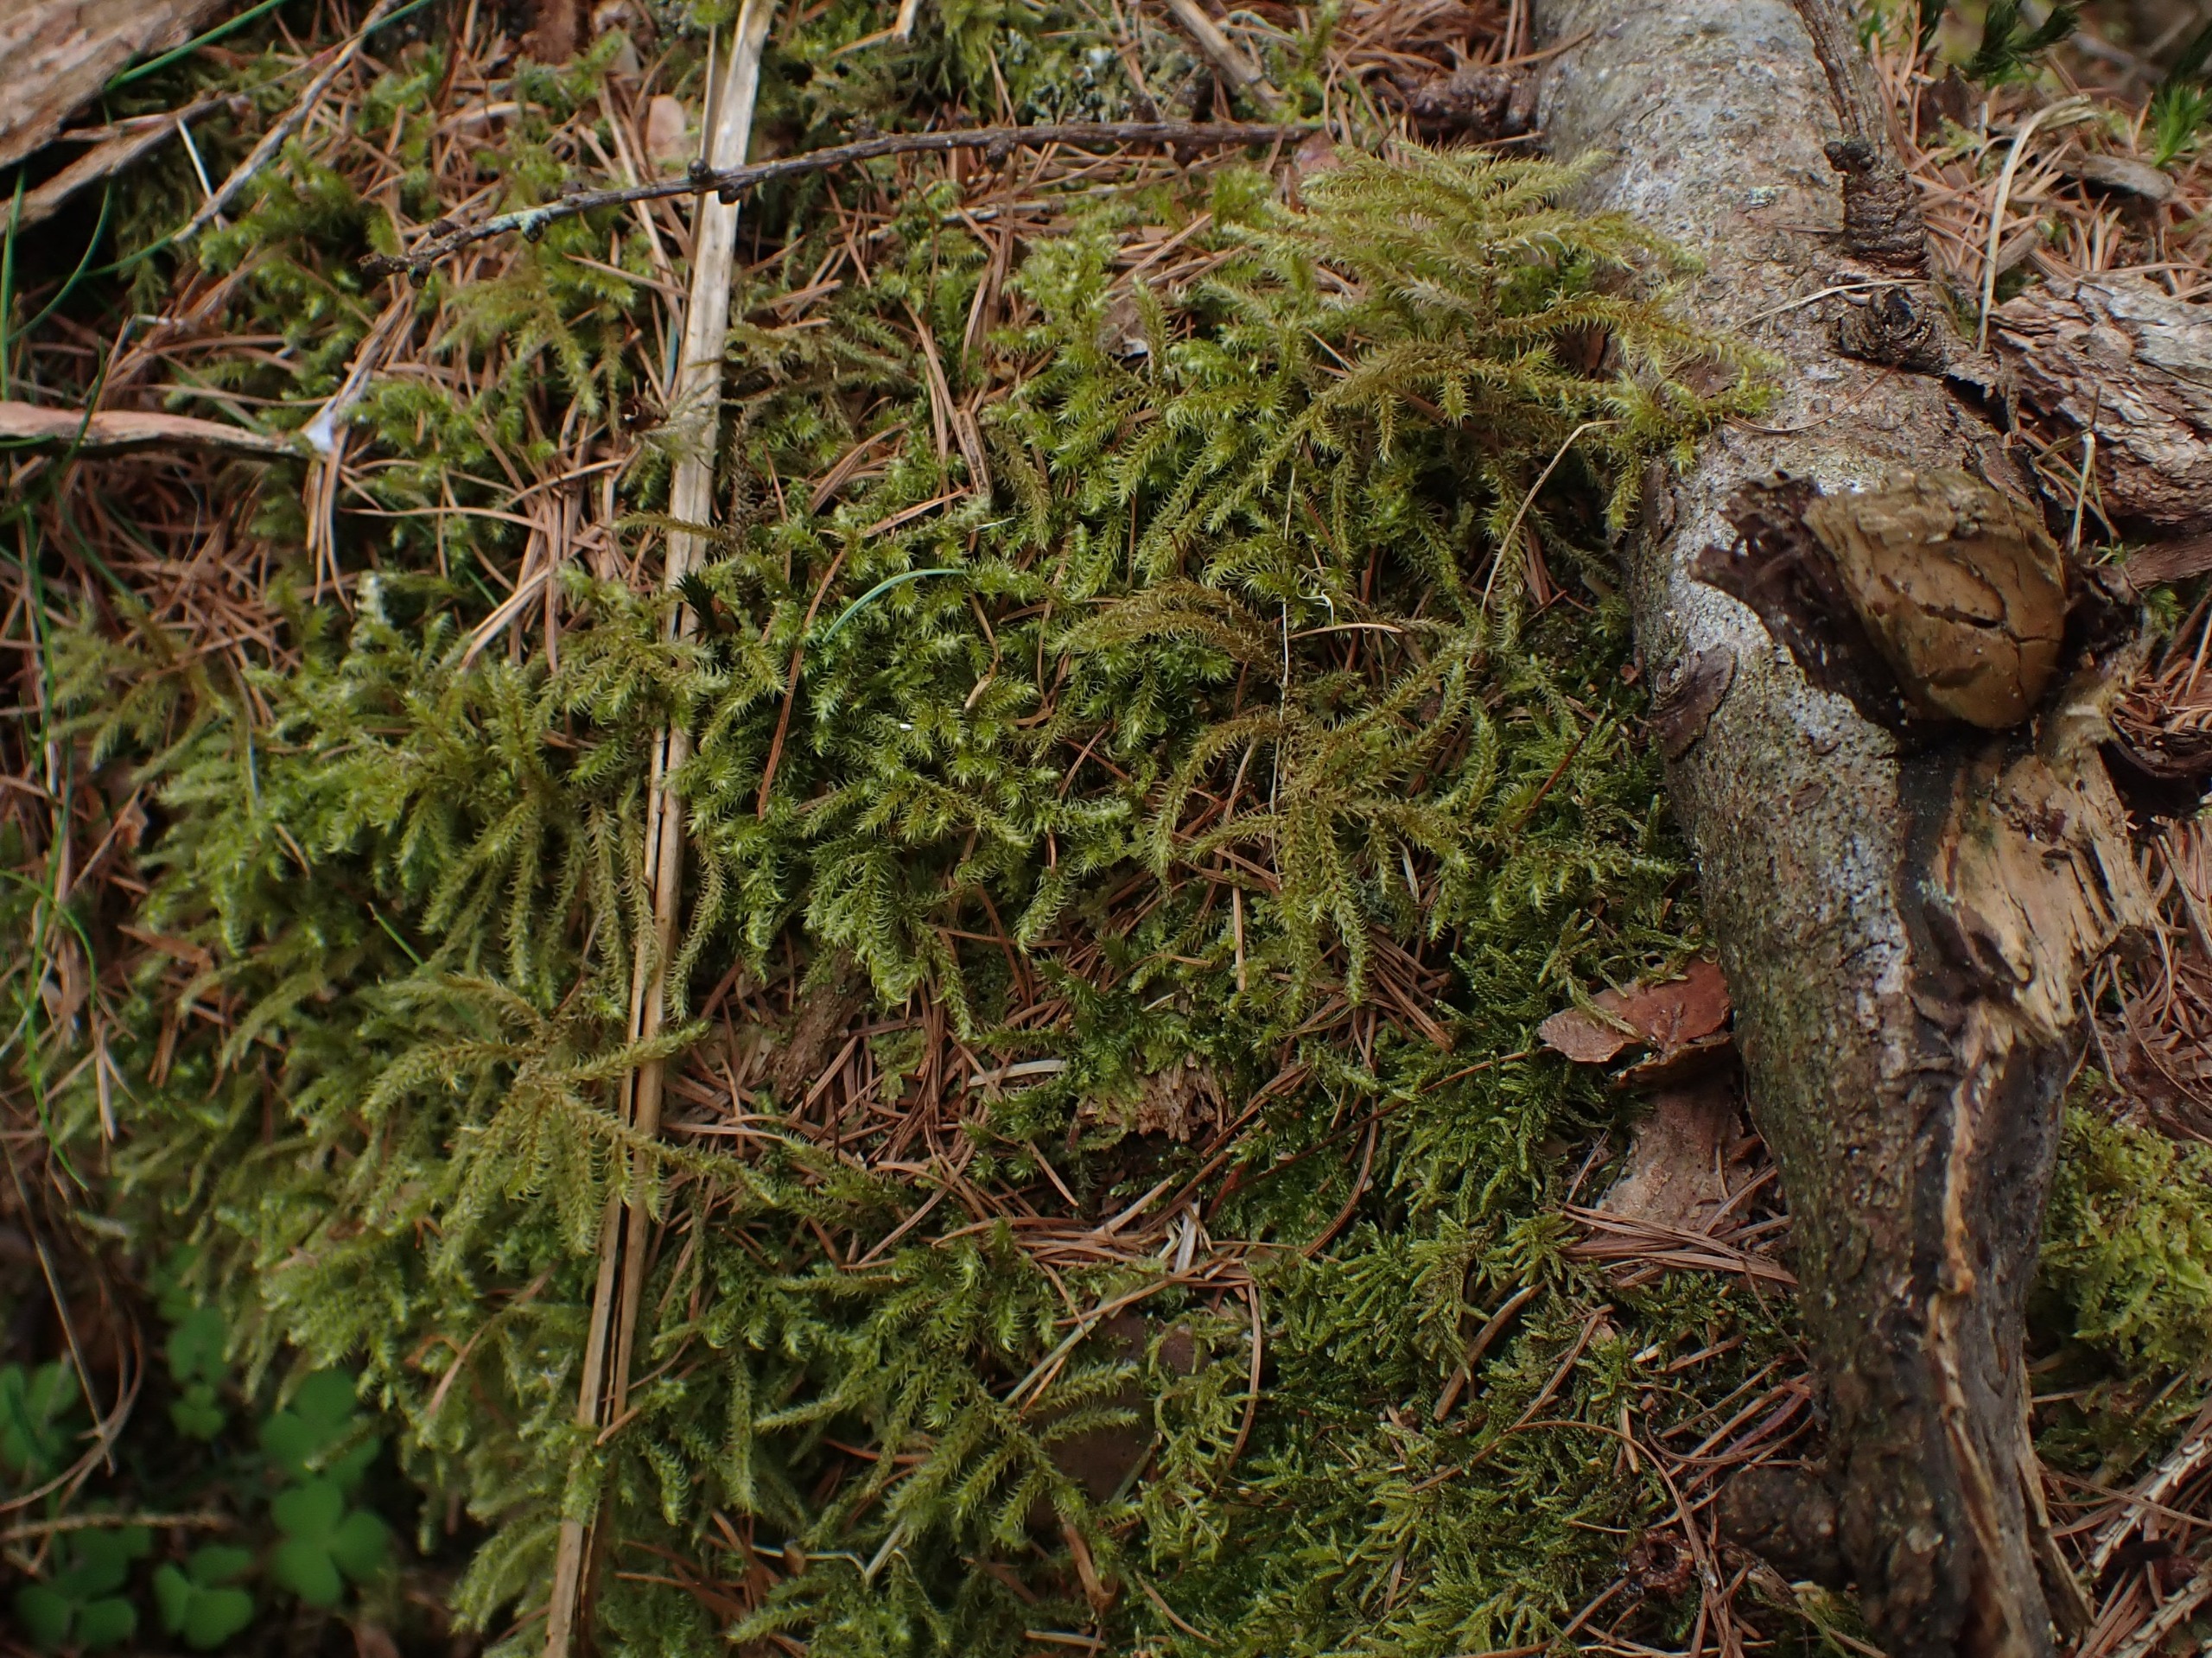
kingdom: Plantae
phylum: Bryophyta
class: Bryopsida
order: Hypnales
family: Hylocomiaceae
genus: Rhytidiadelphus
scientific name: Rhytidiadelphus loreus
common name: Ulvefod-kransemos
